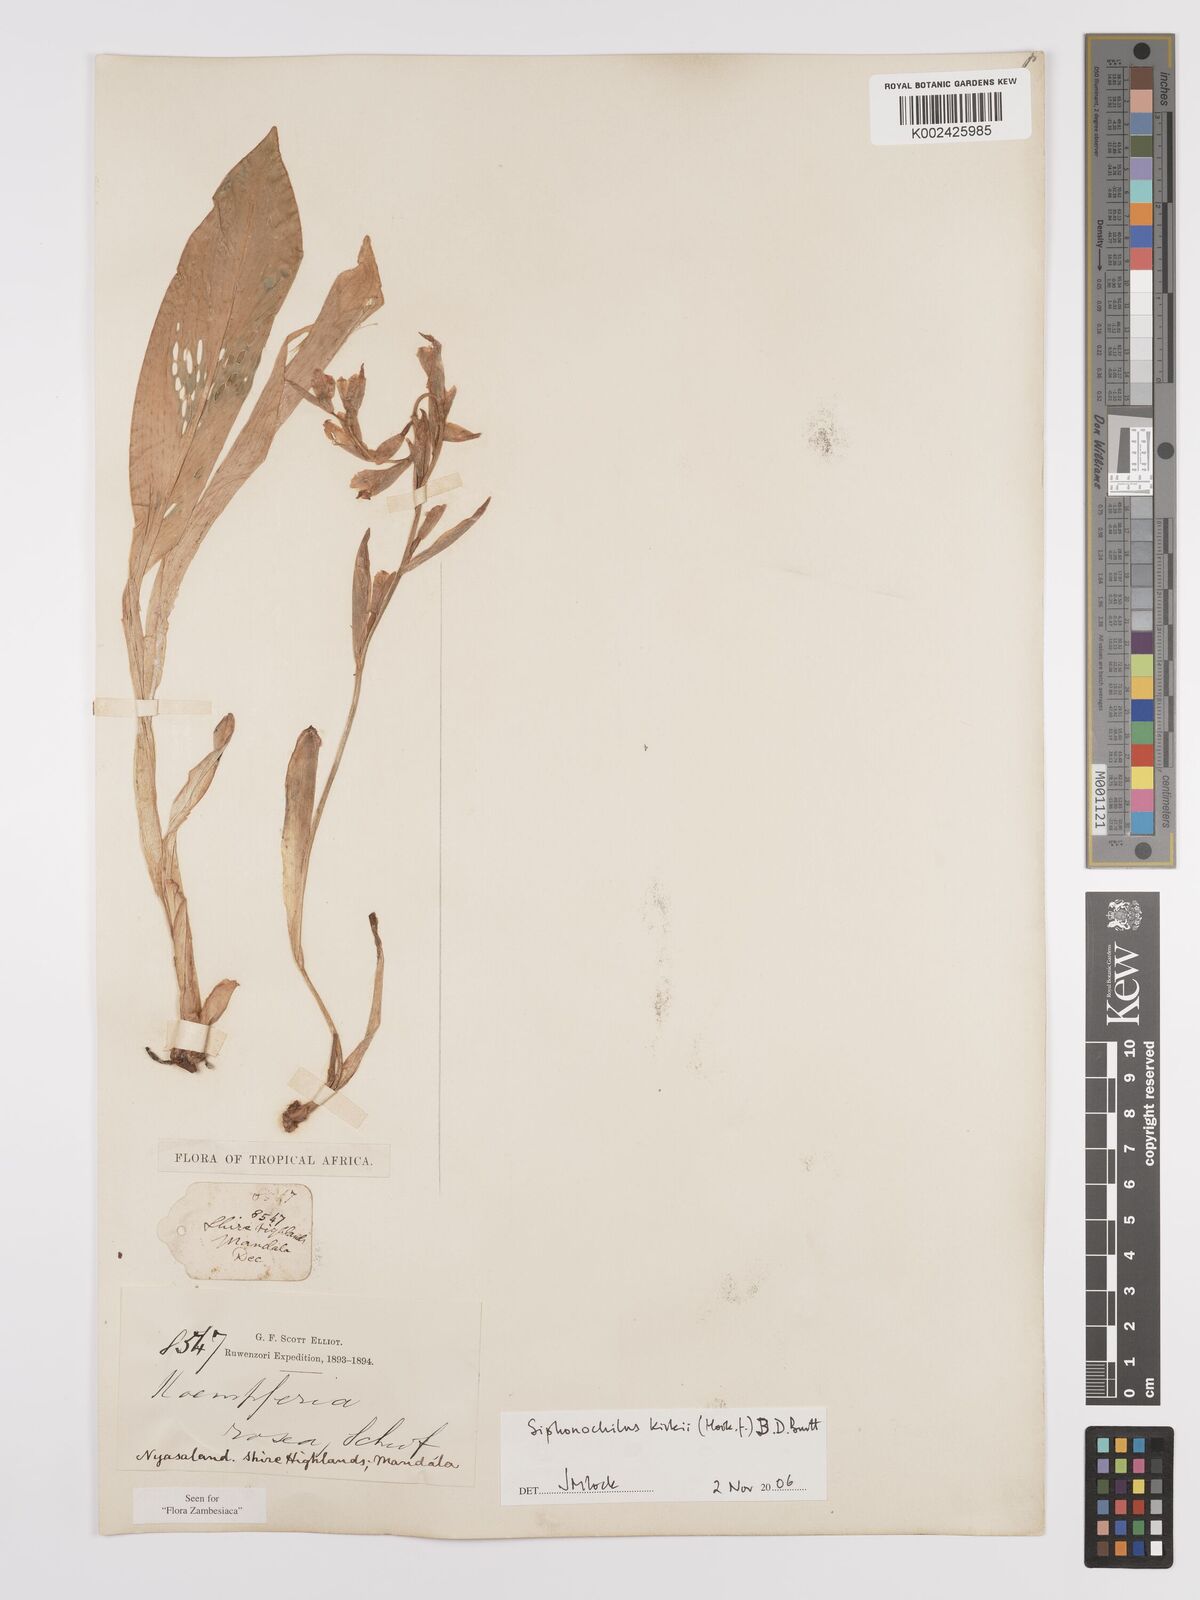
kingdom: Plantae
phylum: Tracheophyta
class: Liliopsida
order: Zingiberales
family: Zingiberaceae
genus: Siphonochilus
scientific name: Siphonochilus kirkii
